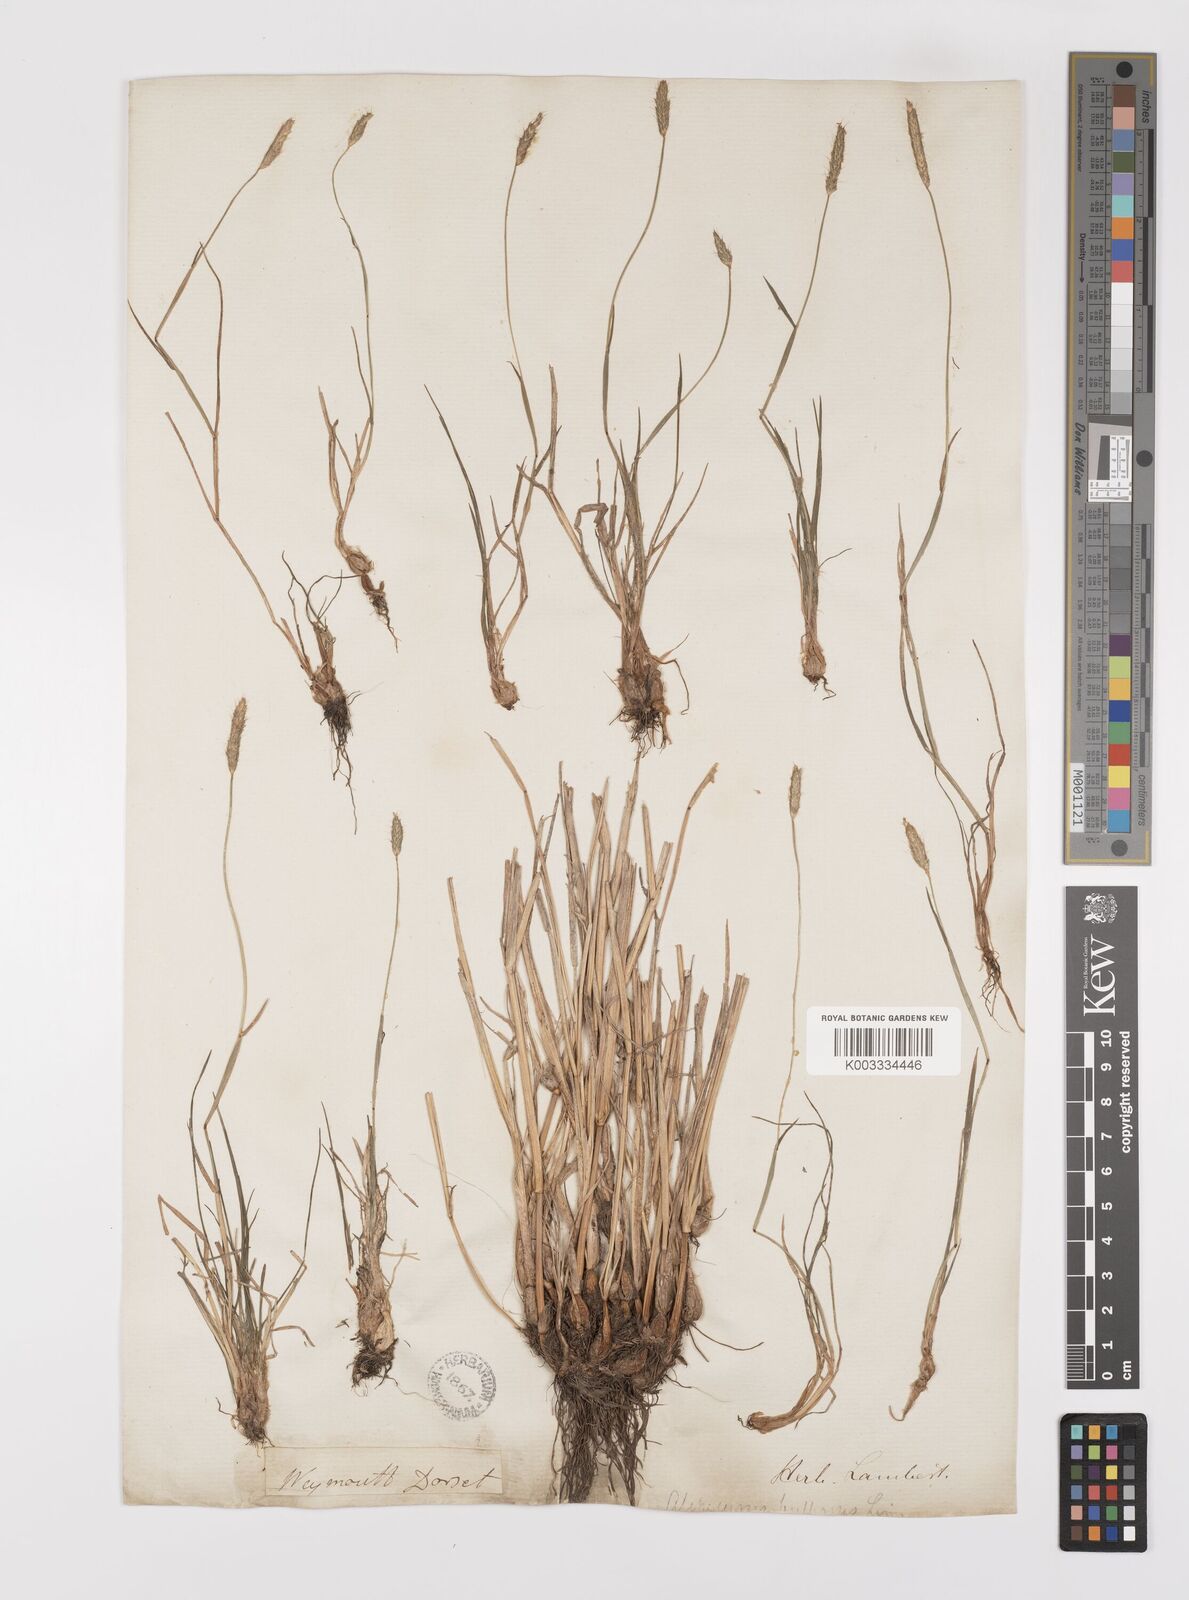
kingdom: Plantae
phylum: Tracheophyta
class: Liliopsida
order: Poales
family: Poaceae
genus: Alopecurus
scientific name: Alopecurus bulbosus
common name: Bulbous foxtail
